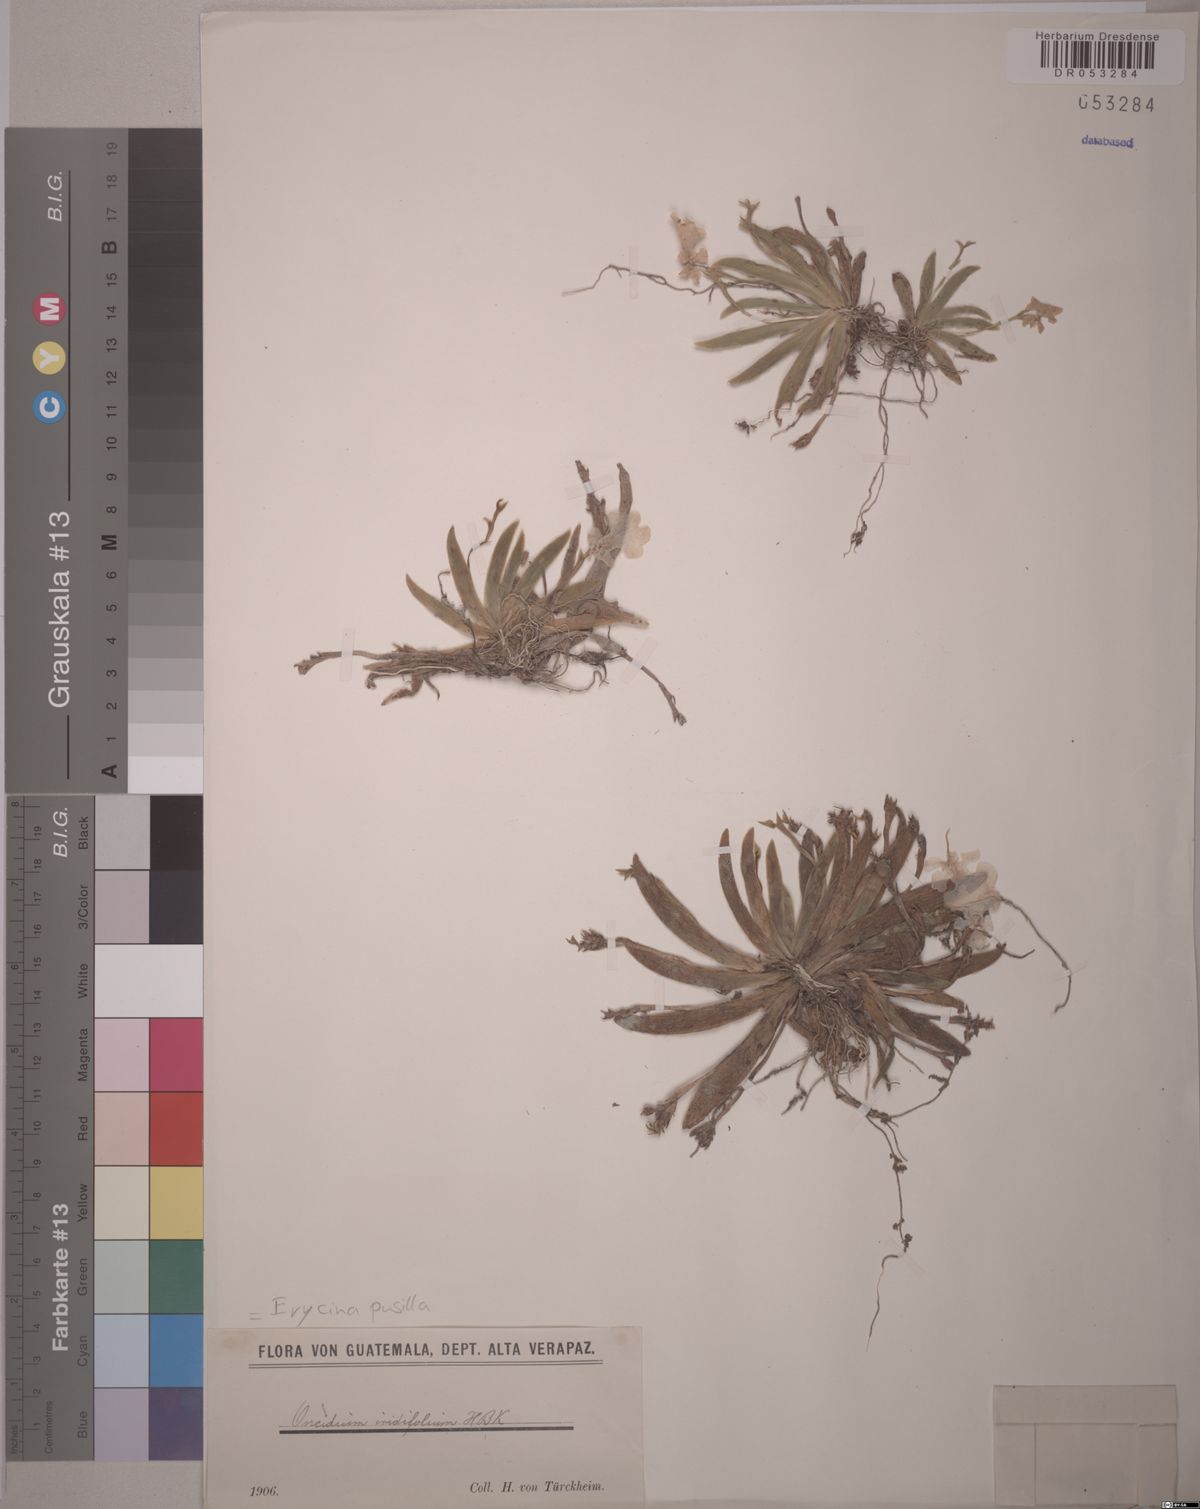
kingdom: Plantae
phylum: Tracheophyta
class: Liliopsida
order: Asparagales
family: Orchidaceae
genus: Erycina
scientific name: Erycina pusilla
